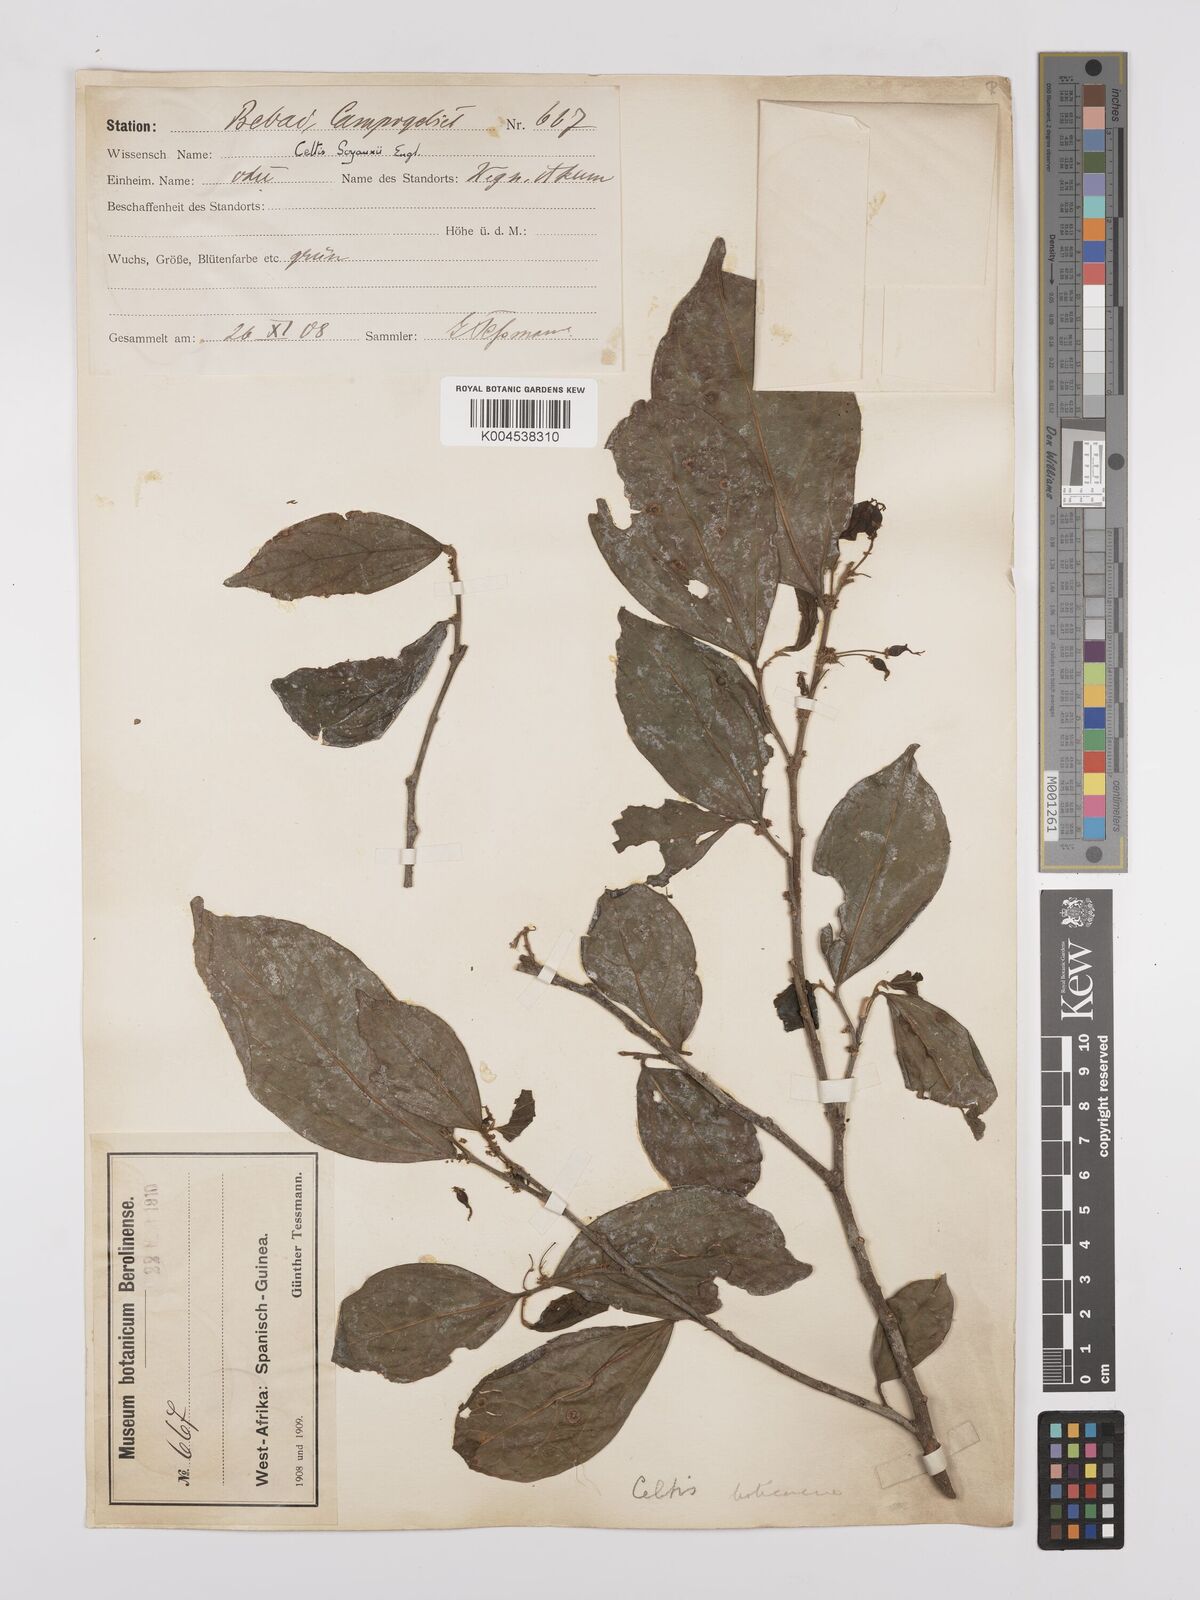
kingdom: Plantae
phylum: Tracheophyta
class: Magnoliopsida
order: Rosales
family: Cannabaceae
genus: Celtis
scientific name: Celtis mildbraedii
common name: Red-fruited stinkwood
